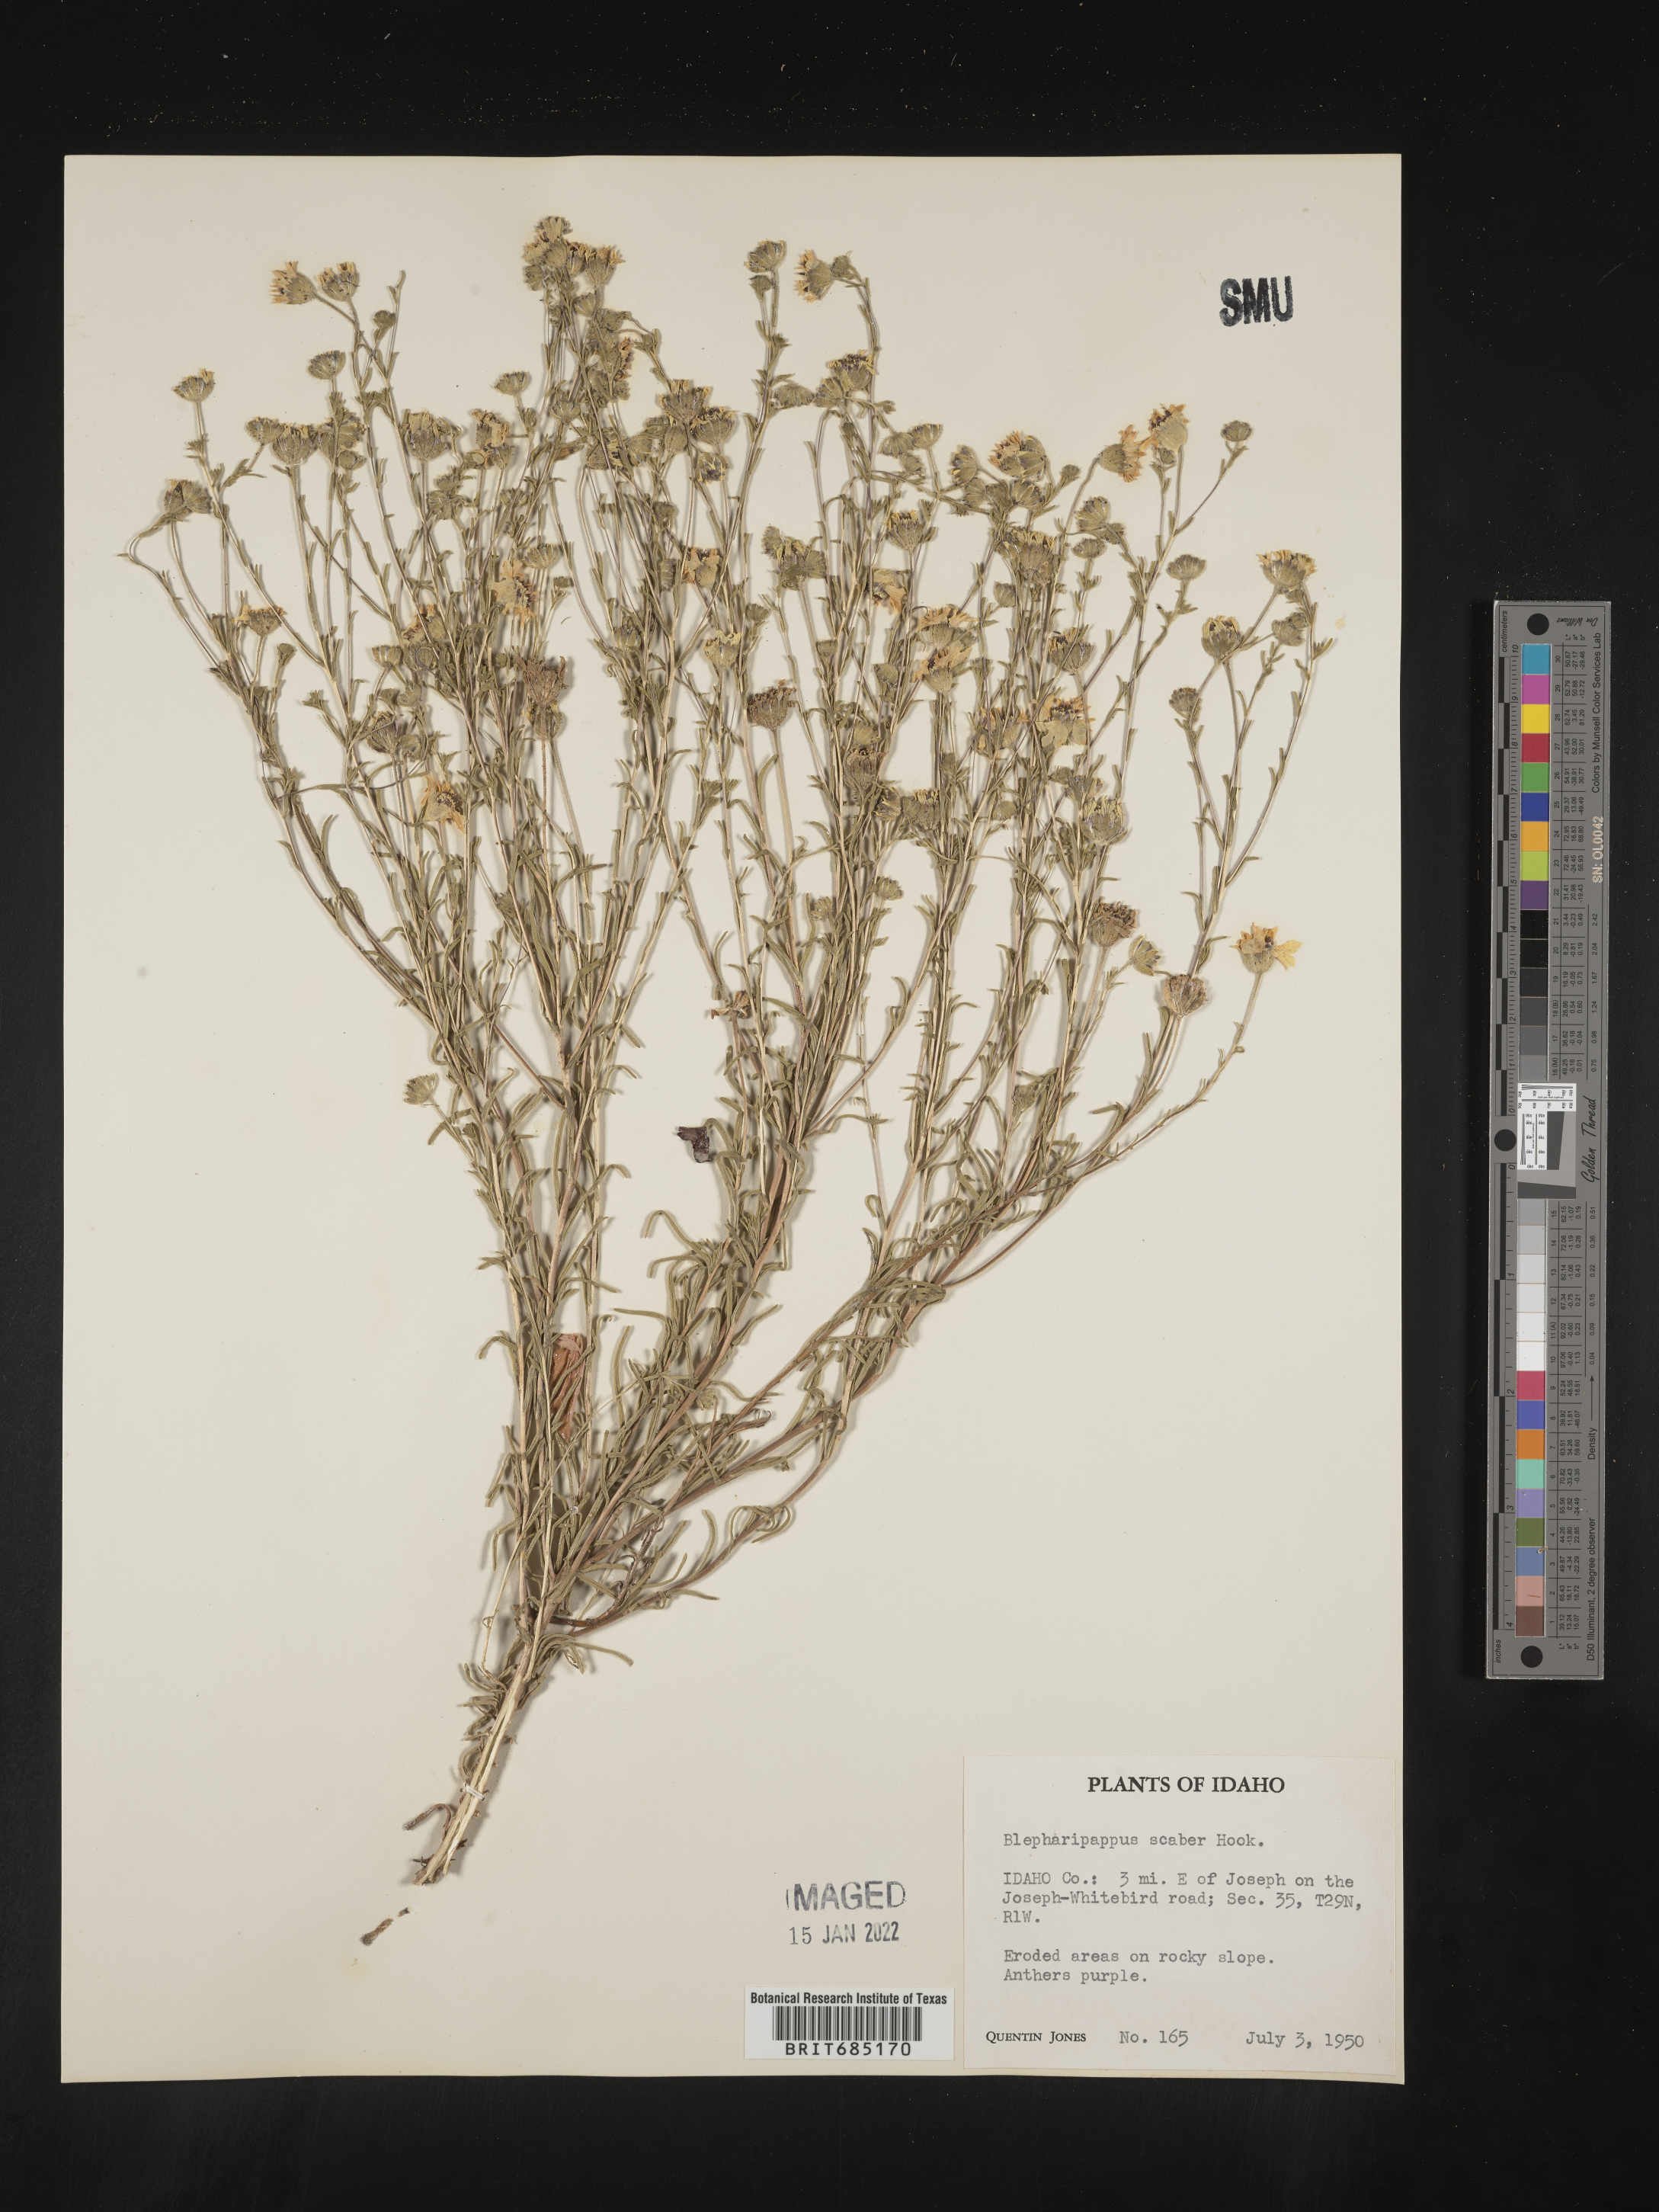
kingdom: Plantae
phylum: Tracheophyta
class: Magnoliopsida
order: Asterales
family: Asteraceae
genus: Blepharipappus
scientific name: Blepharipappus
